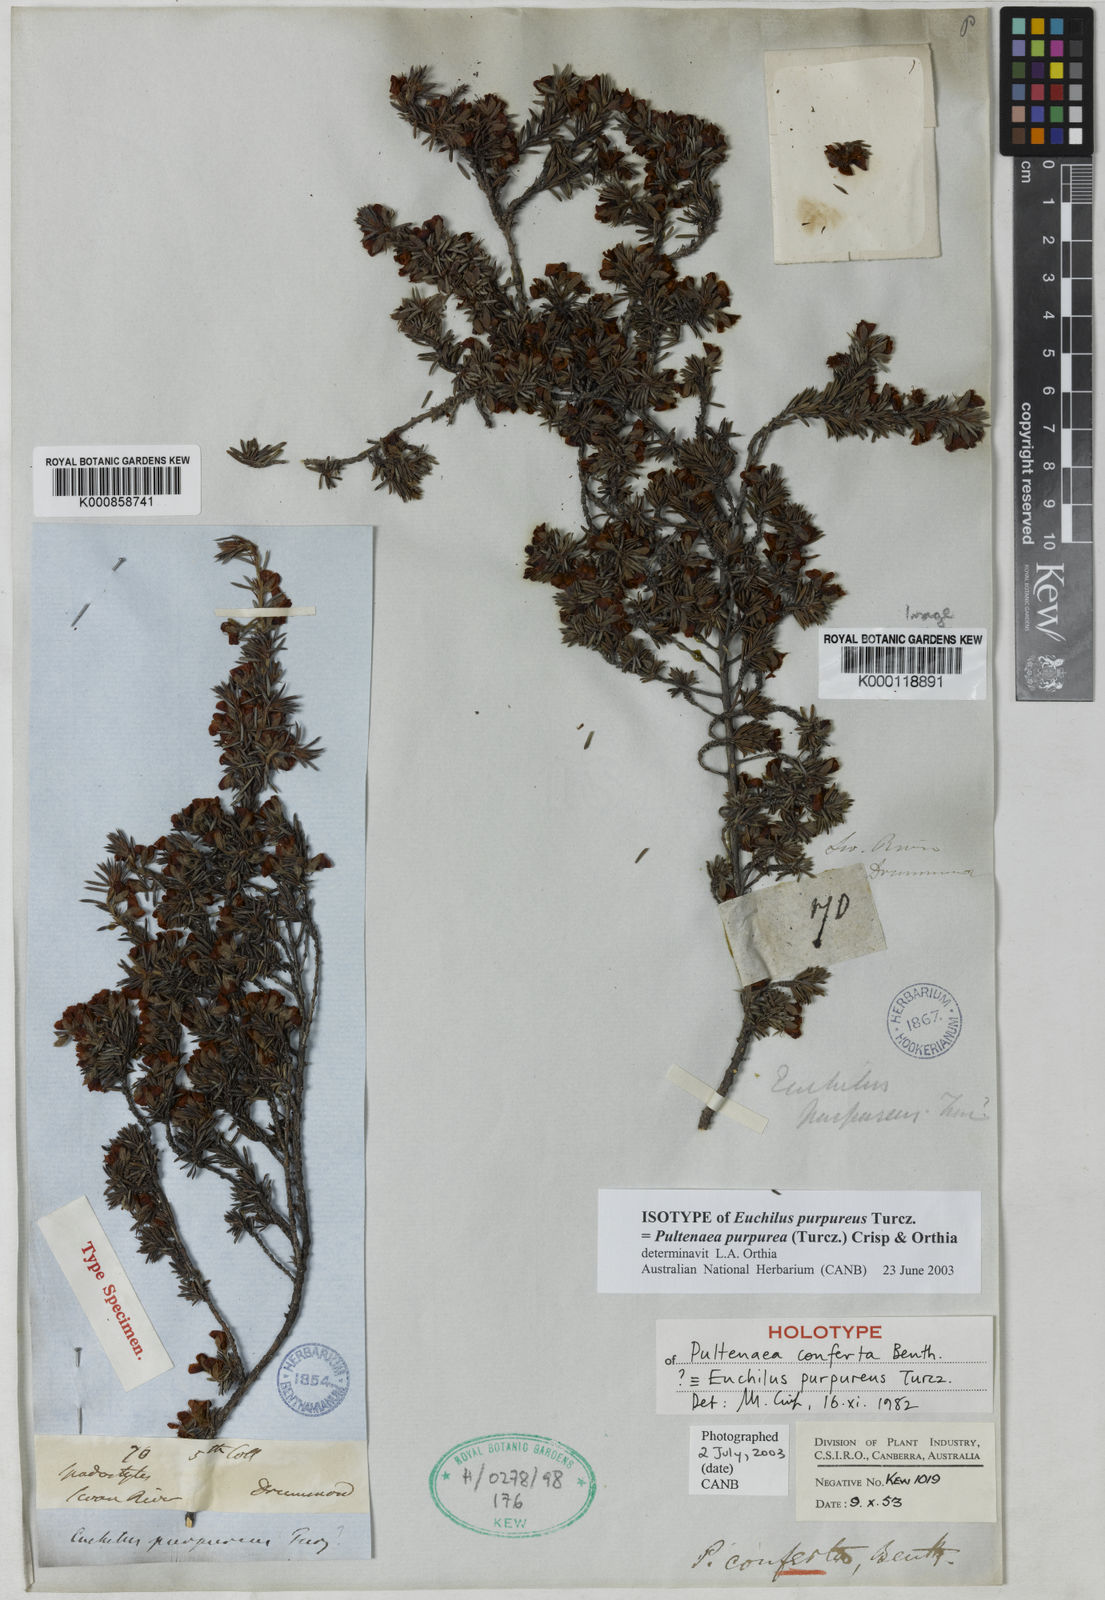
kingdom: Plantae
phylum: Tracheophyta
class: Magnoliopsida
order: Fabales
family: Fabaceae
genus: Pultenaea
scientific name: Pultenaea purpurea
